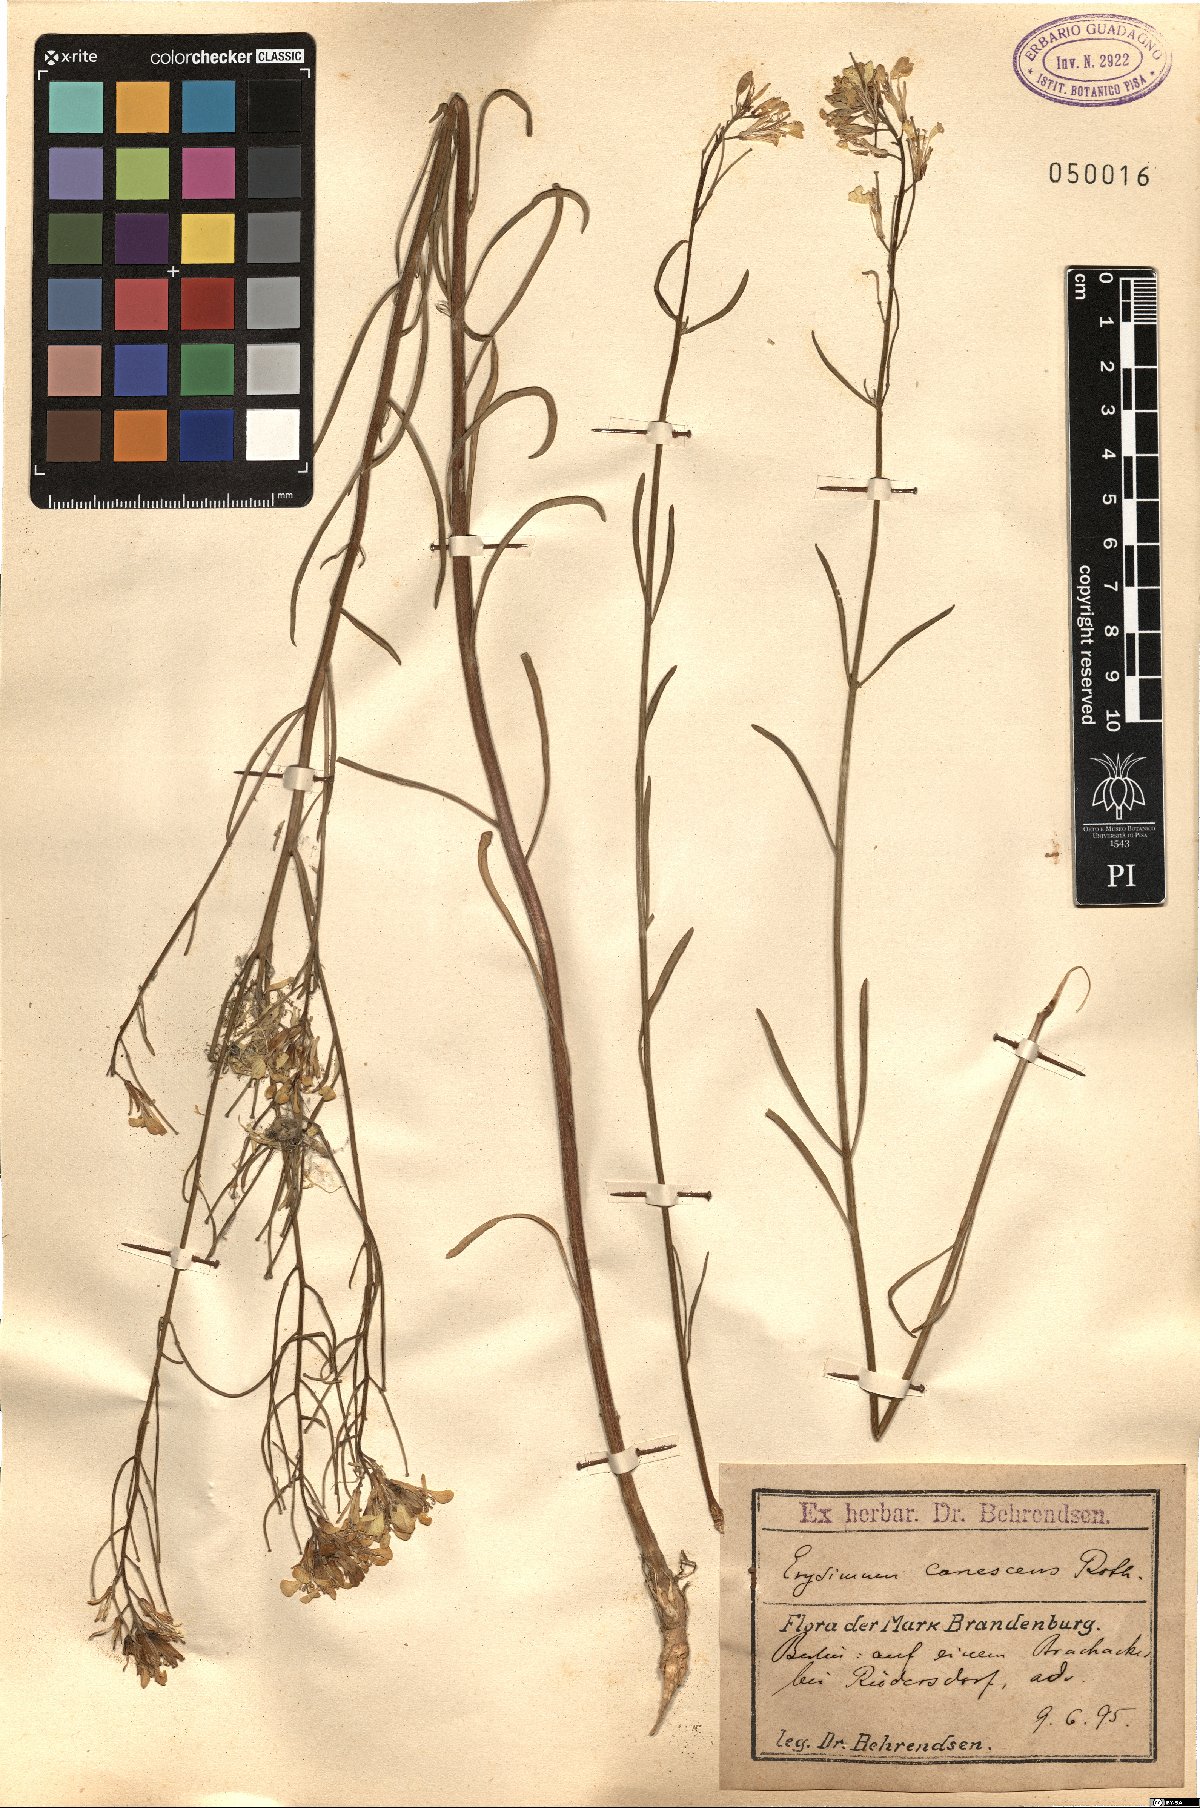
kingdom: Plantae
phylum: Tracheophyta
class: Magnoliopsida
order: Brassicales
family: Brassicaceae
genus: Erysimum
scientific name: Erysimum canescens
